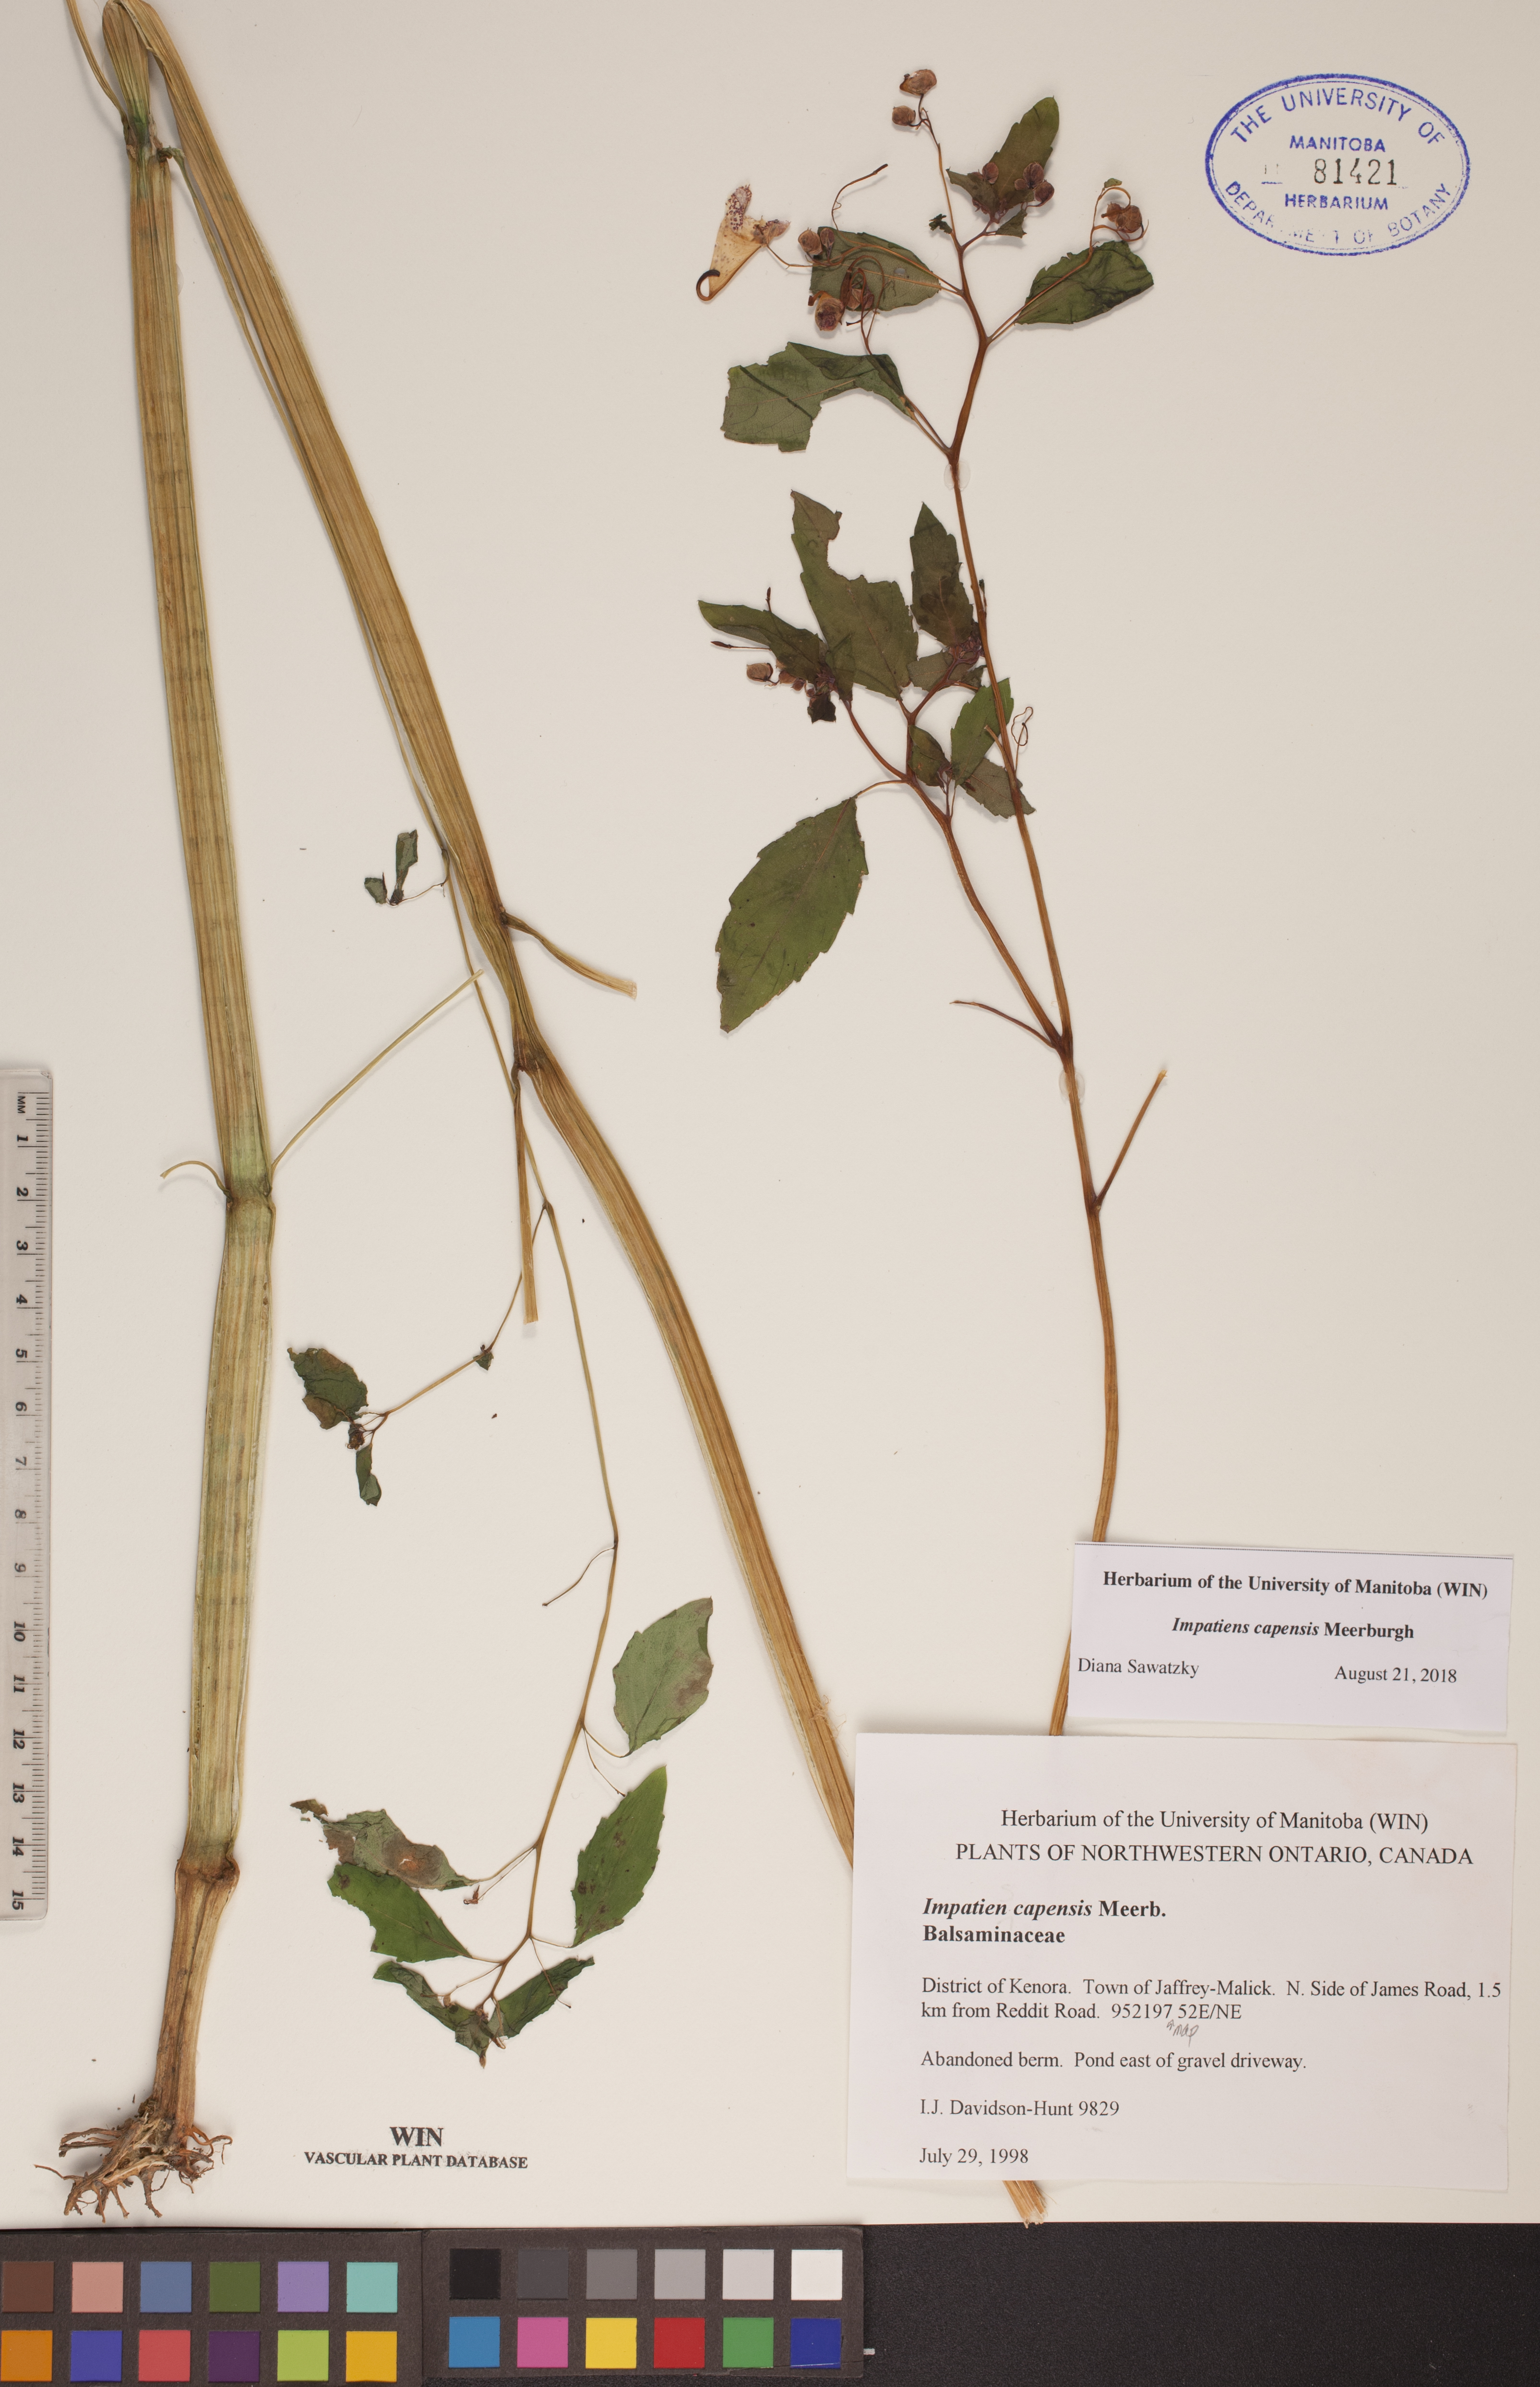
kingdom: Plantae
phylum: Tracheophyta
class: Magnoliopsida
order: Ericales
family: Balsaminaceae
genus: Impatiens
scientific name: Impatiens capensis
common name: Orange balsam
